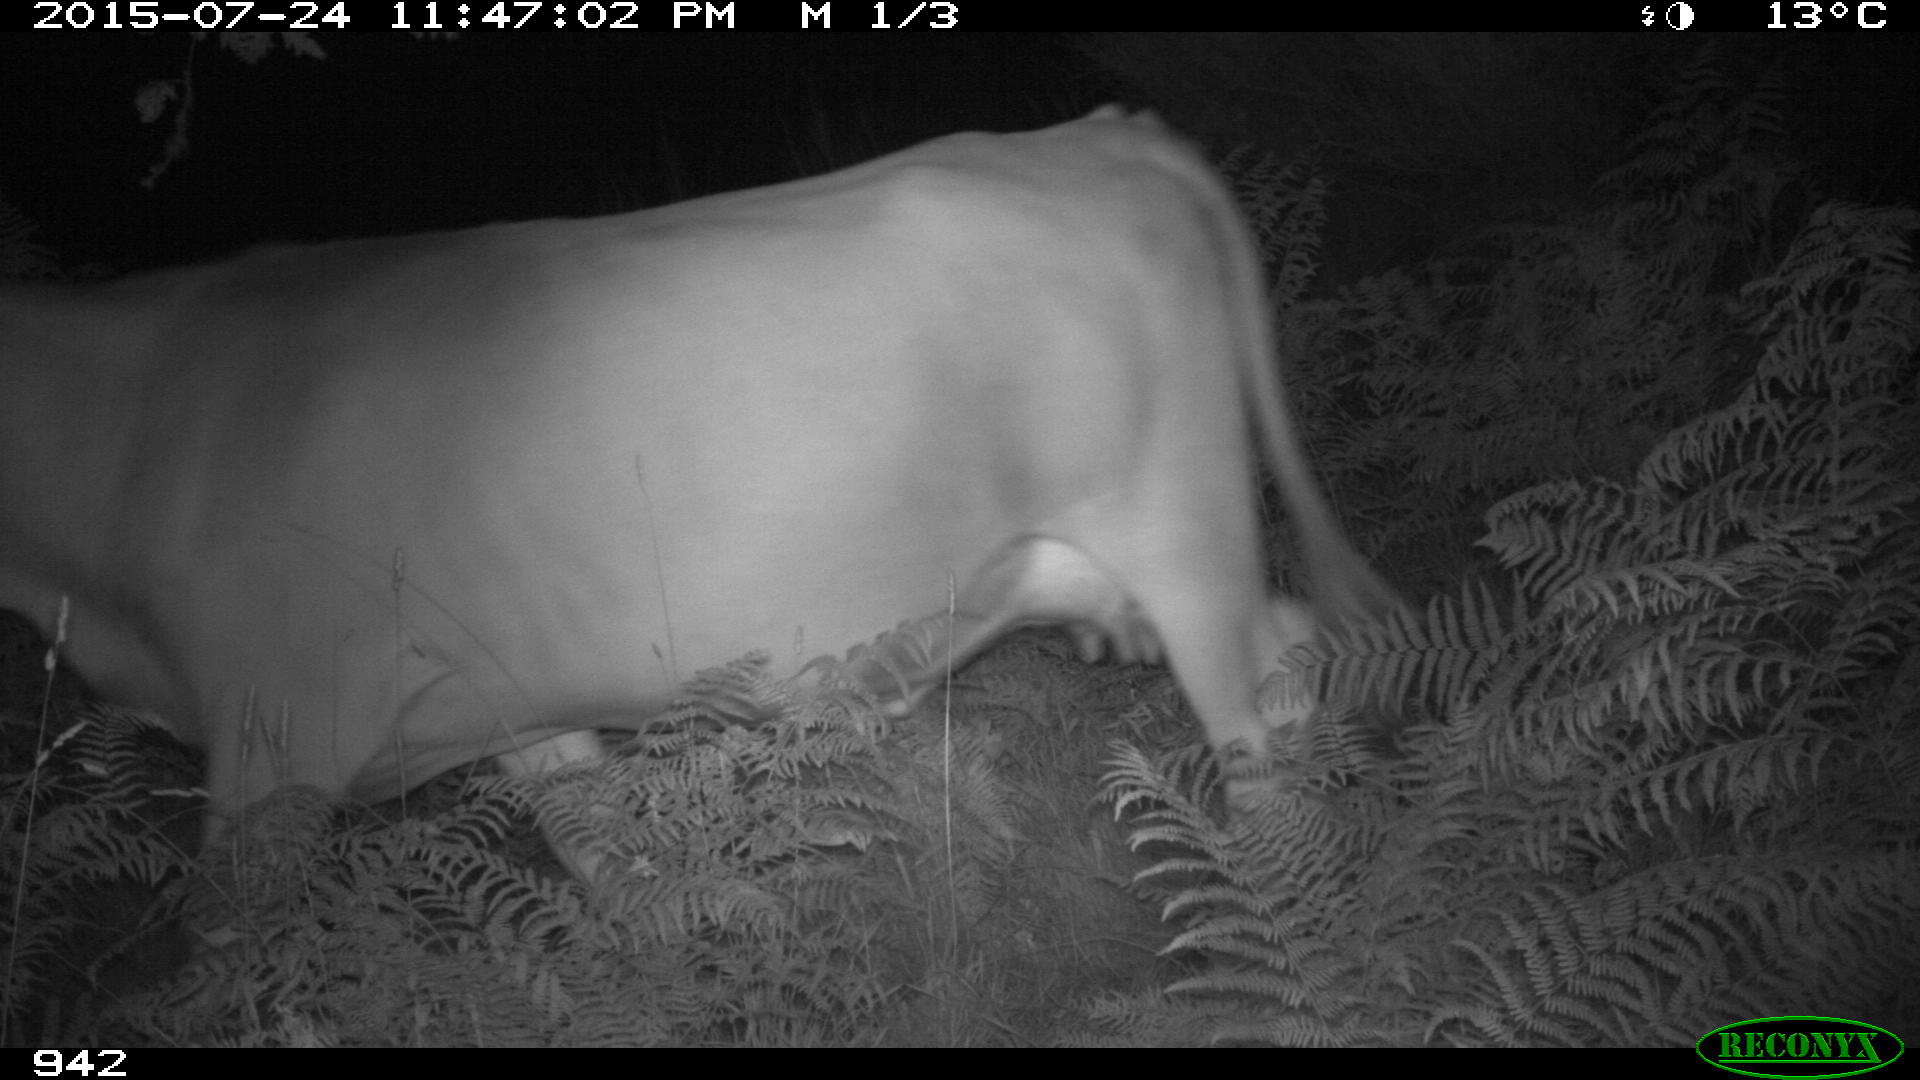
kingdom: Animalia
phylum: Chordata
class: Mammalia
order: Artiodactyla
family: Bovidae
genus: Bos
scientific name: Bos taurus
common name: Domesticated cattle
